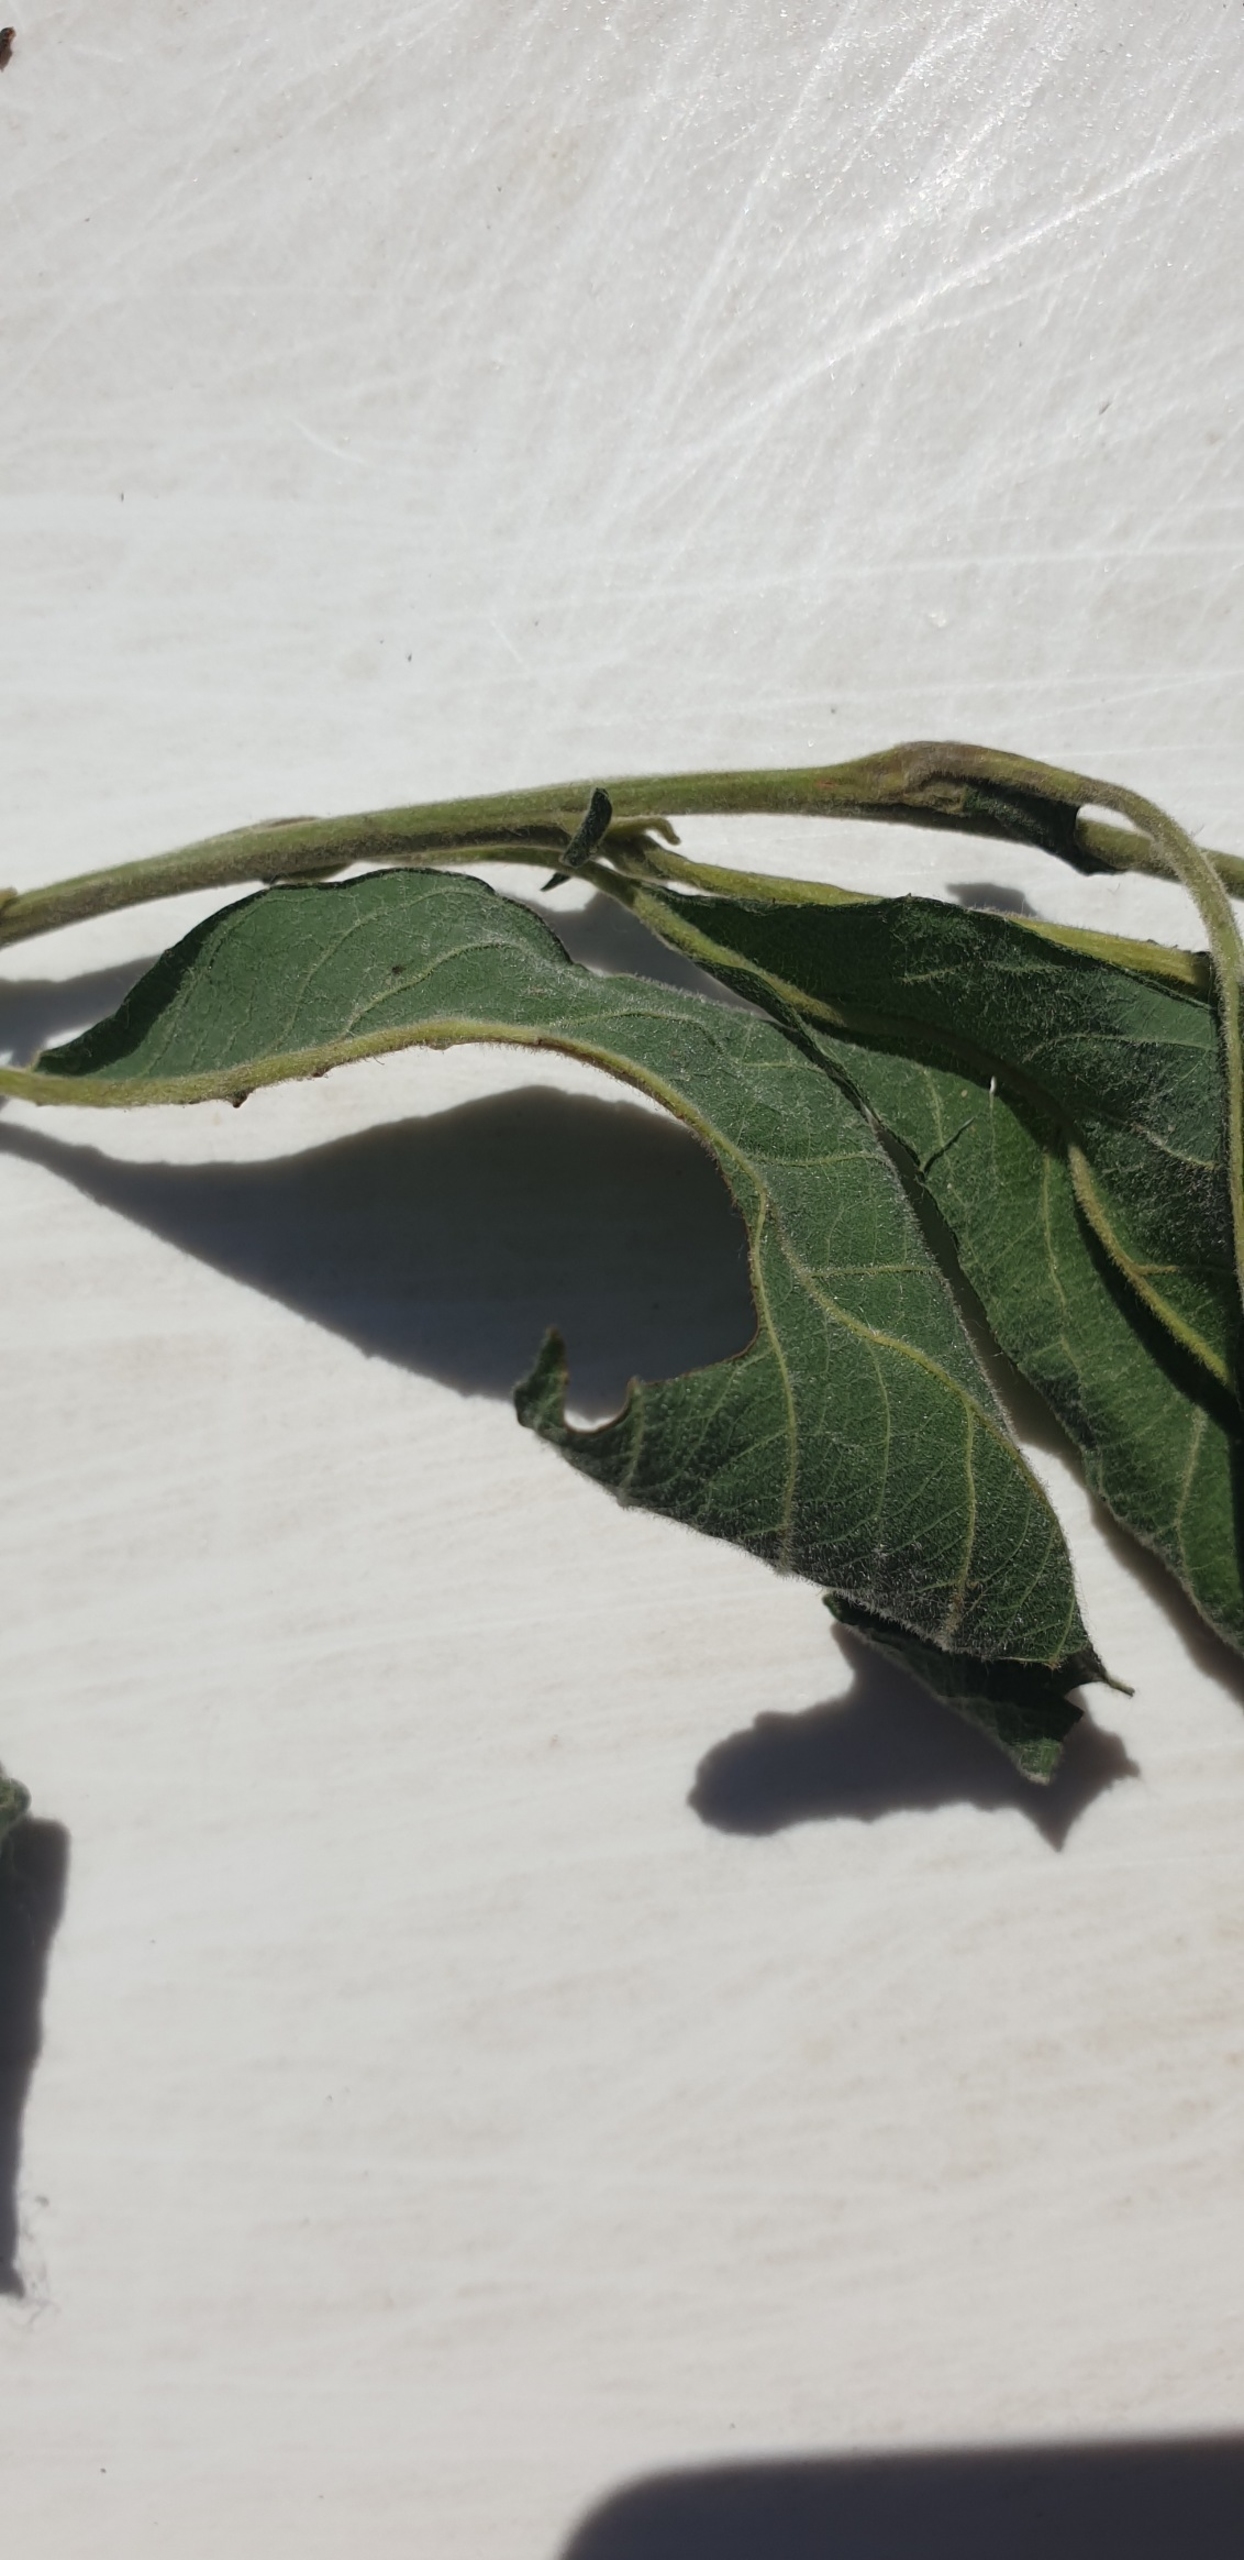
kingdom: Plantae
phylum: Tracheophyta
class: Magnoliopsida
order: Malpighiales
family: Salicaceae
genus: Salix
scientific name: Salix cinerea
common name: Grå-pil
